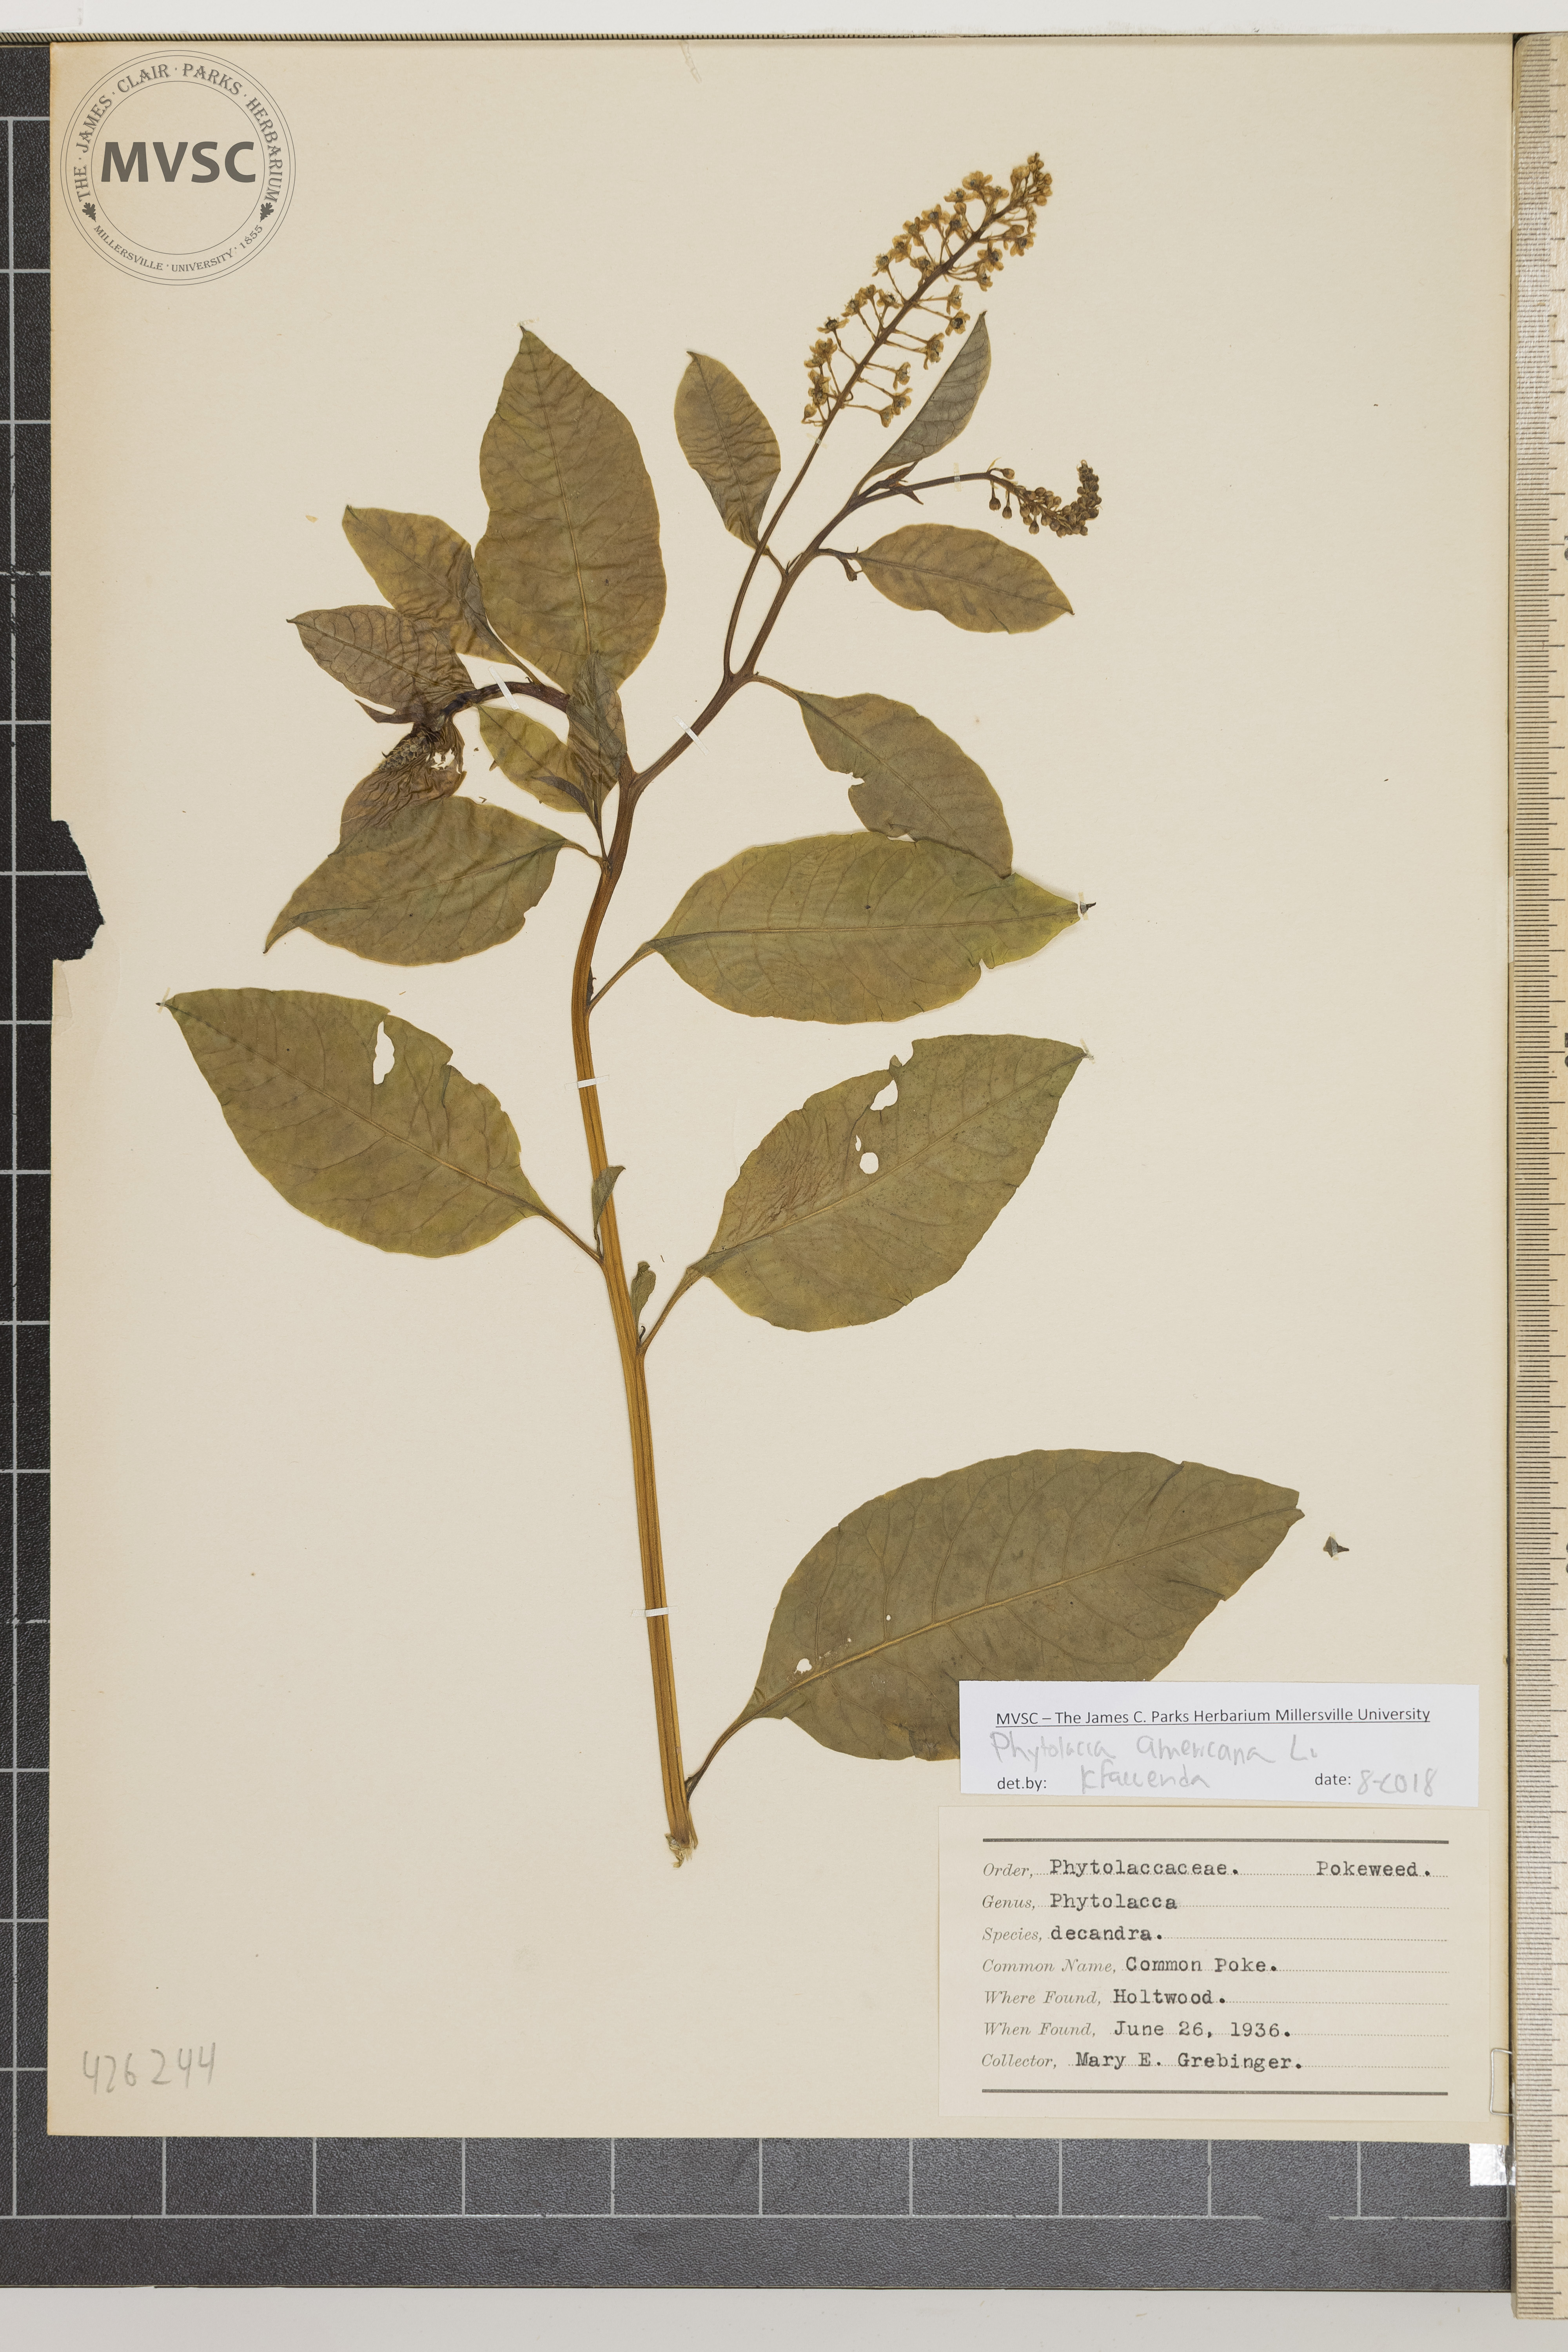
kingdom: Plantae
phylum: Tracheophyta
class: Magnoliopsida
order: Caryophyllales
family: Phytolaccaceae
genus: Phytolacca
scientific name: Phytolacca americana
